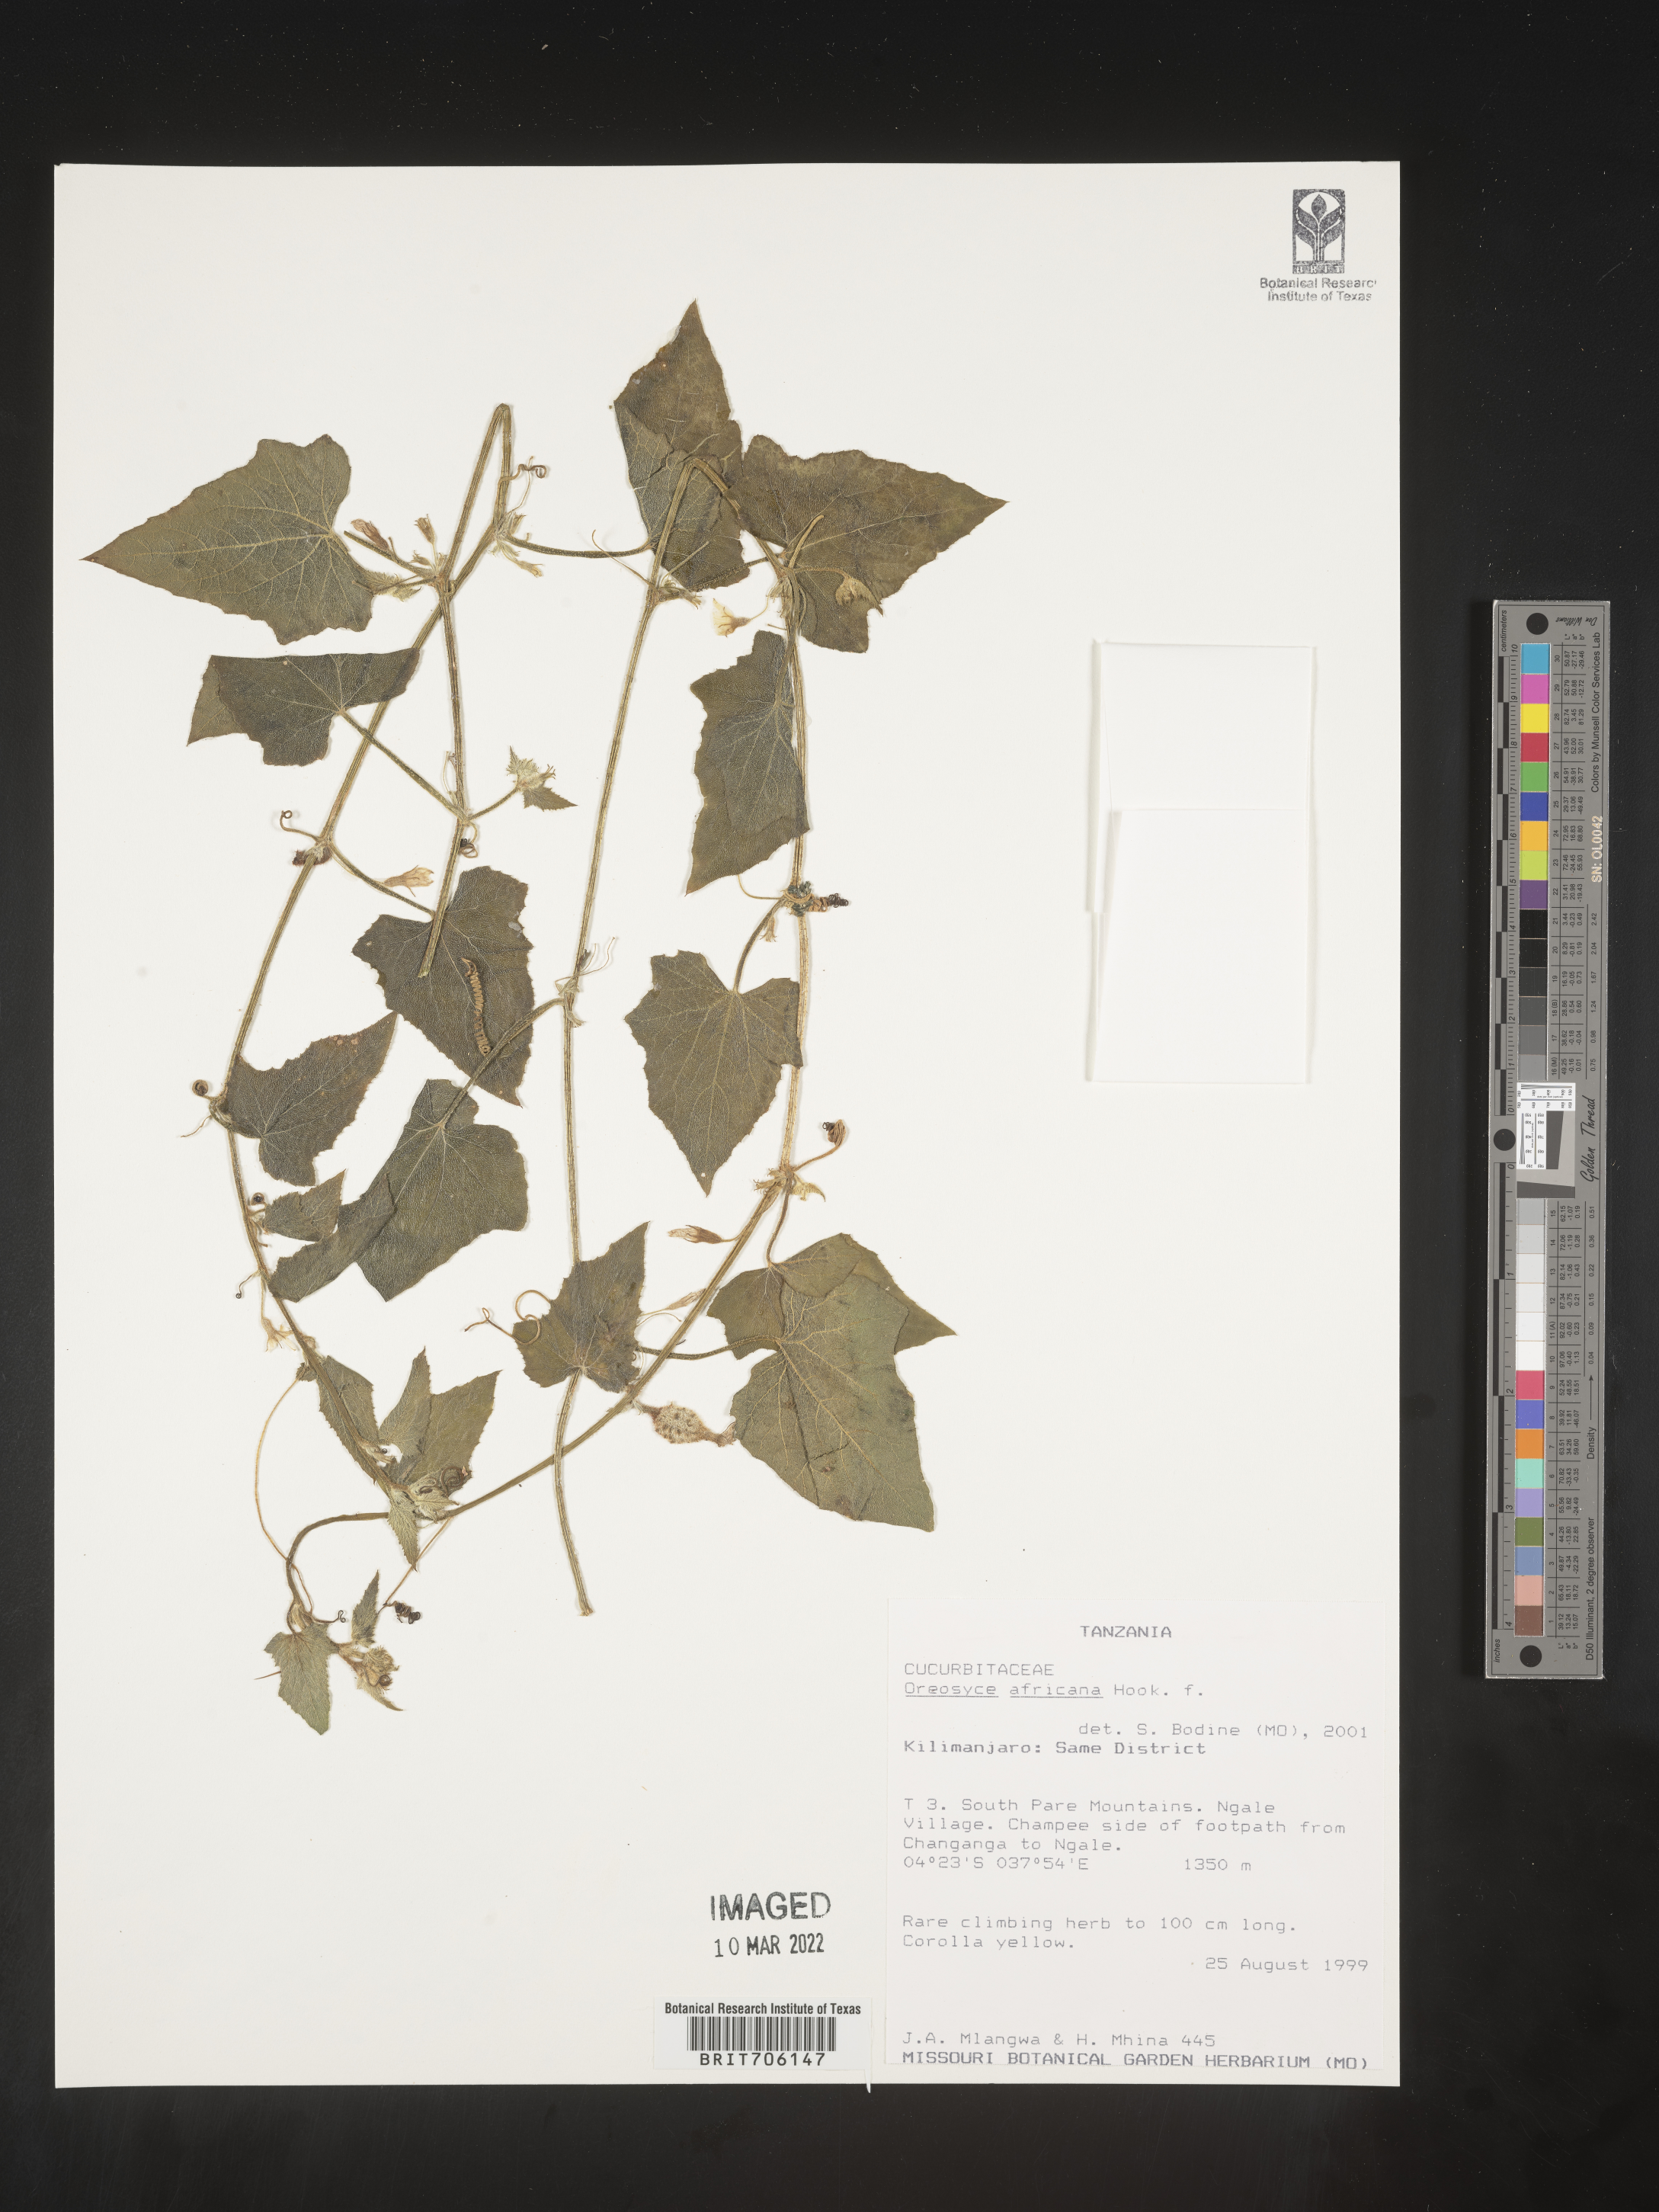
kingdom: Plantae
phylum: Tracheophyta
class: Magnoliopsida
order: Cucurbitales
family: Cucurbitaceae
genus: Oreosyce
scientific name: Oreosyce
